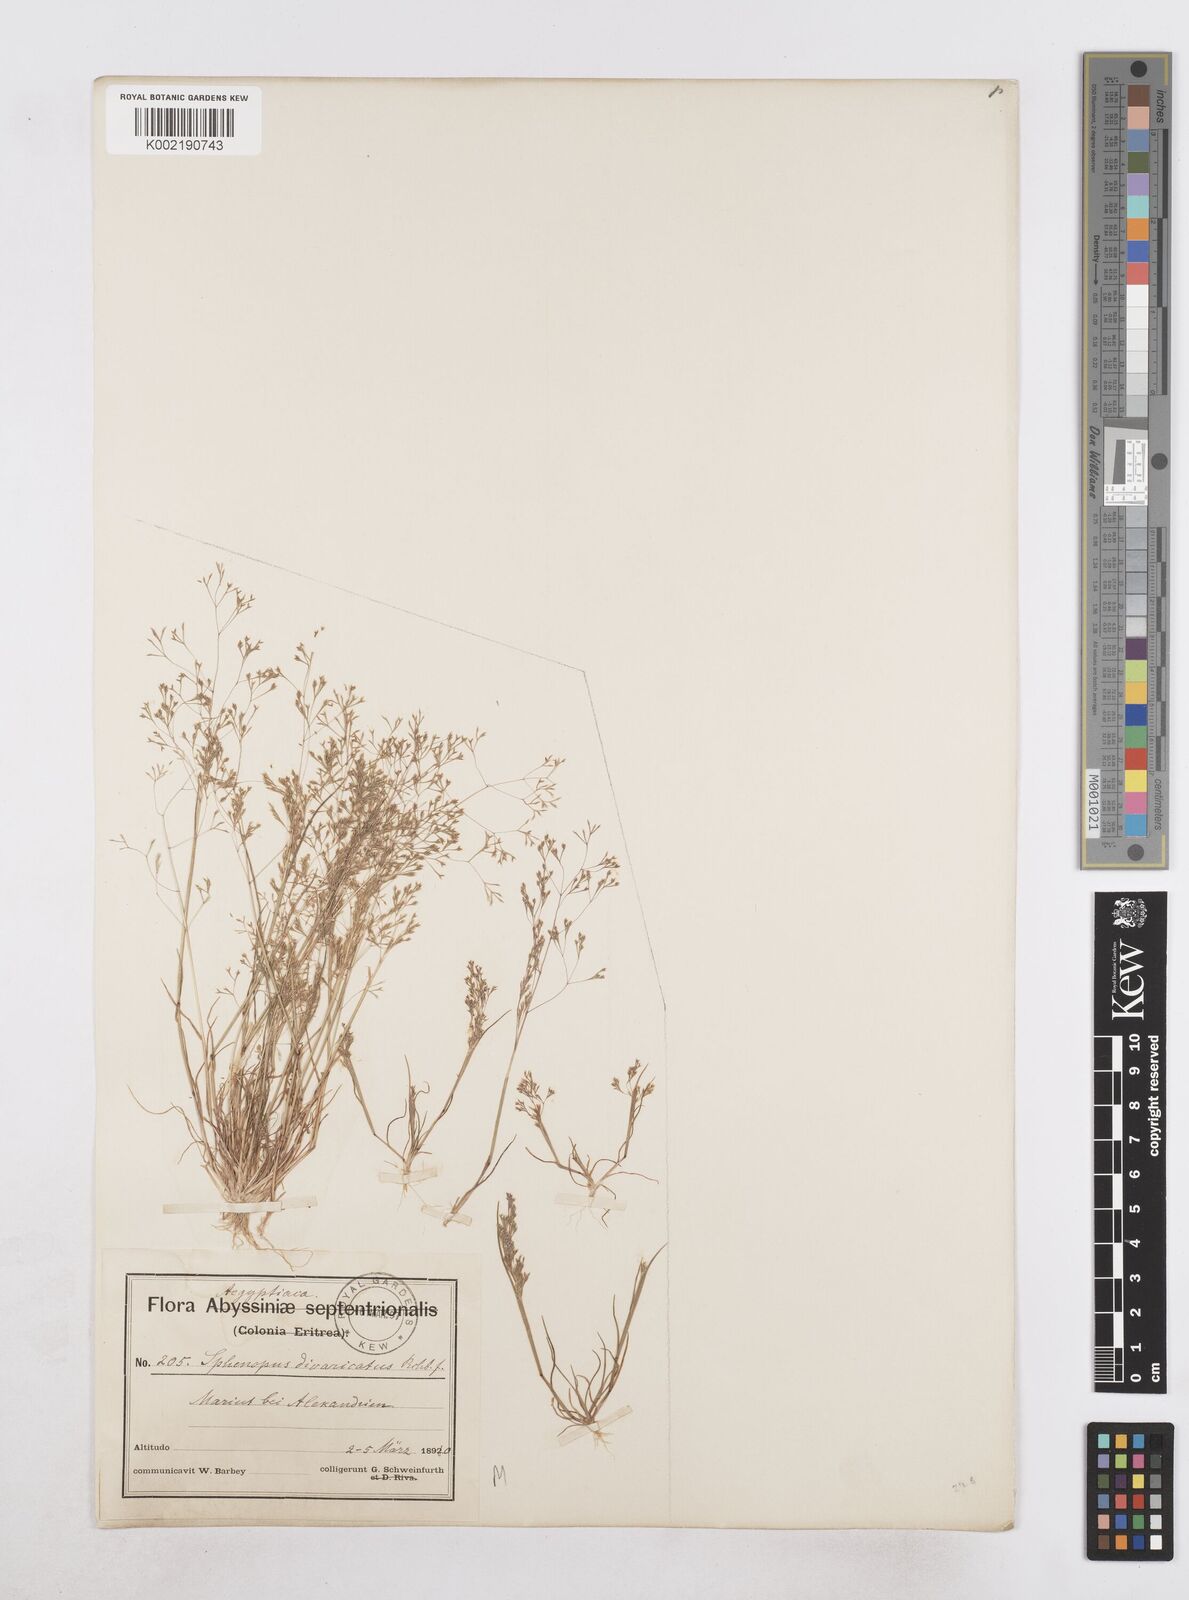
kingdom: Plantae
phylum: Tracheophyta
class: Liliopsida
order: Poales
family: Poaceae
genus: Sphenopus
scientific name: Sphenopus divaricatus
